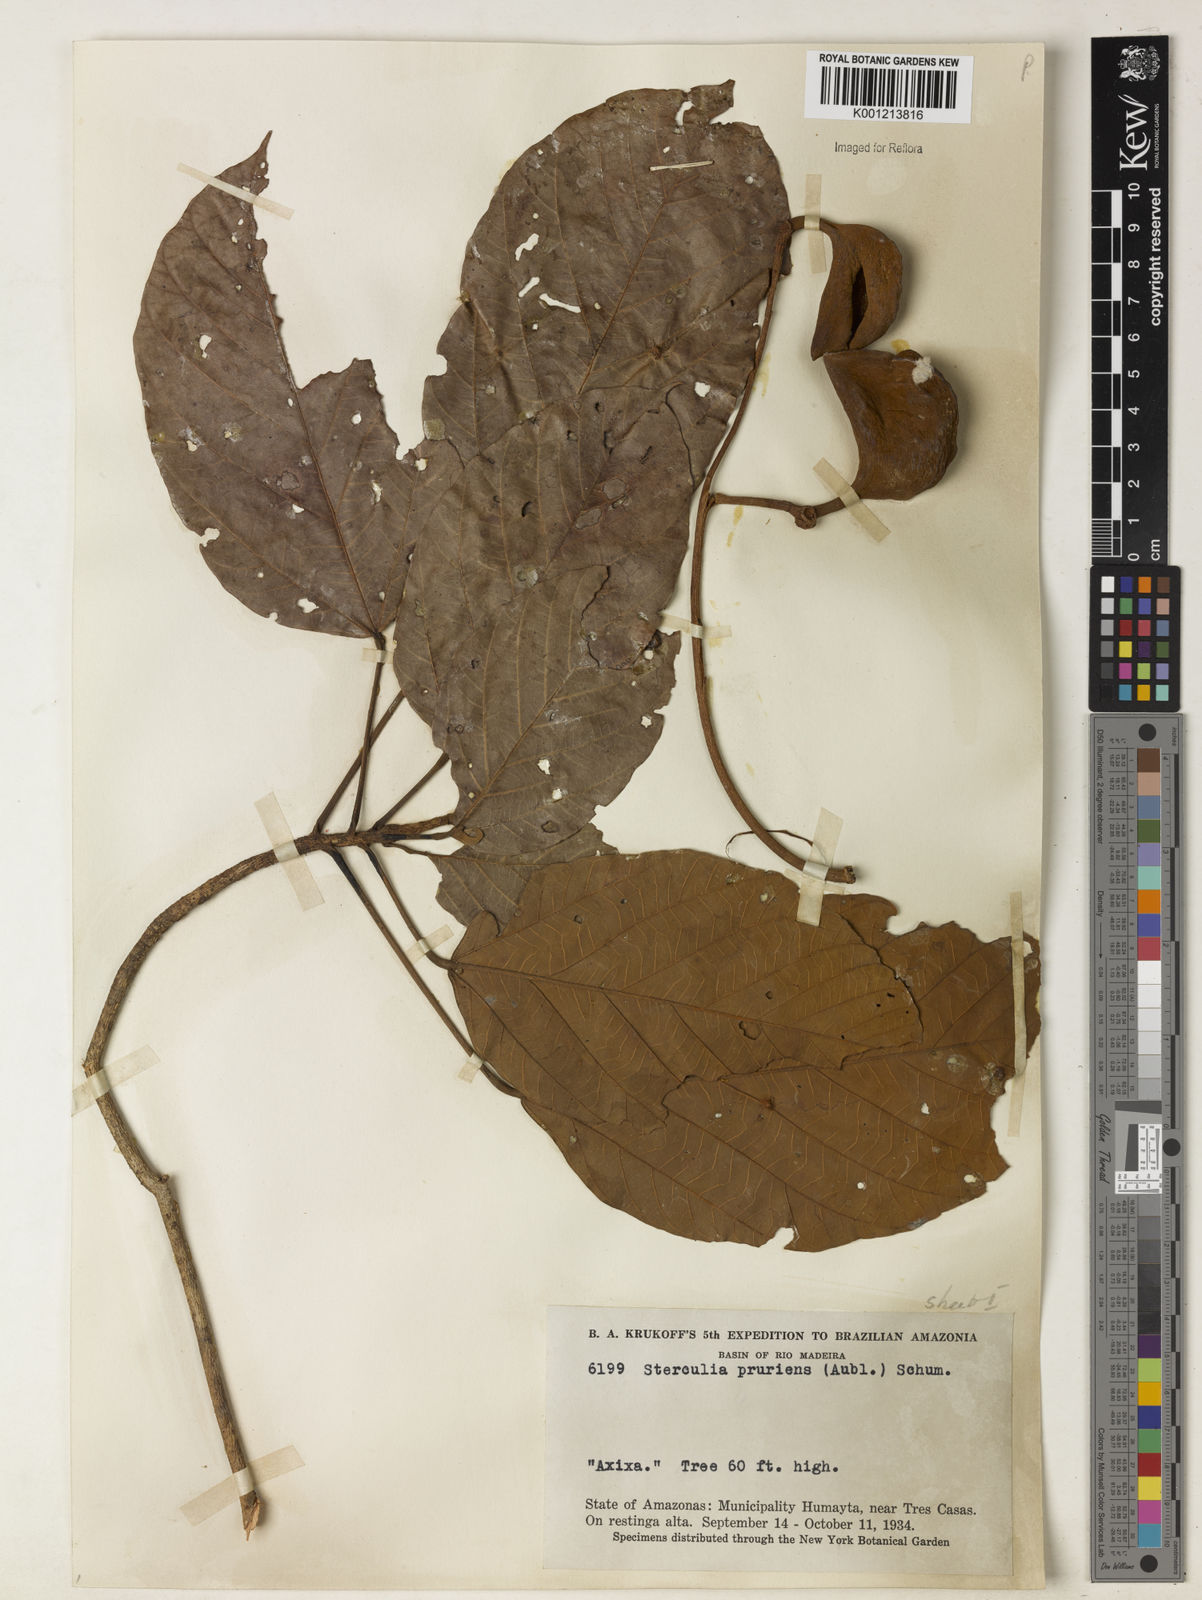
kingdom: Plantae
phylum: Tracheophyta
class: Magnoliopsida
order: Malvales
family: Malvaceae
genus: Sterculia
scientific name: Sterculia pruriens
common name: Grand mahot
